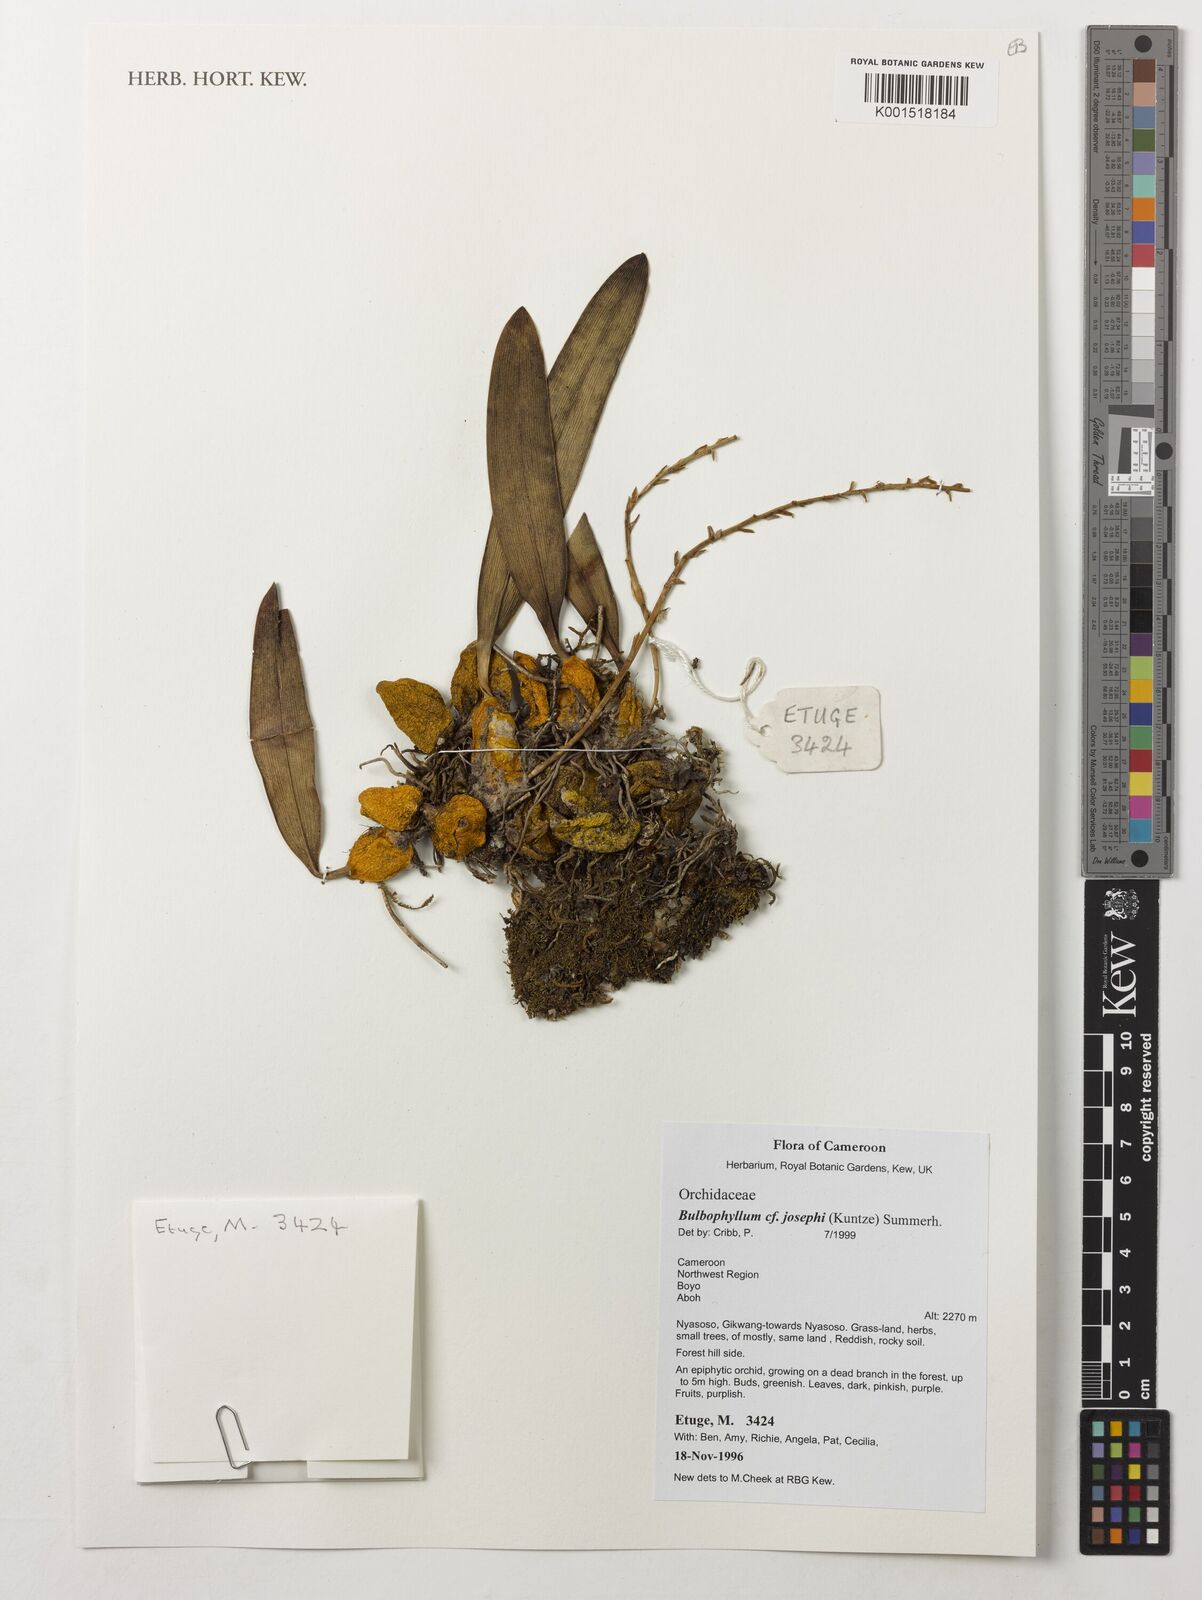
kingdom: Plantae
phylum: Tracheophyta
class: Liliopsida
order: Asparagales
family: Orchidaceae
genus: Bulbophyllum
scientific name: Bulbophyllum josephi
